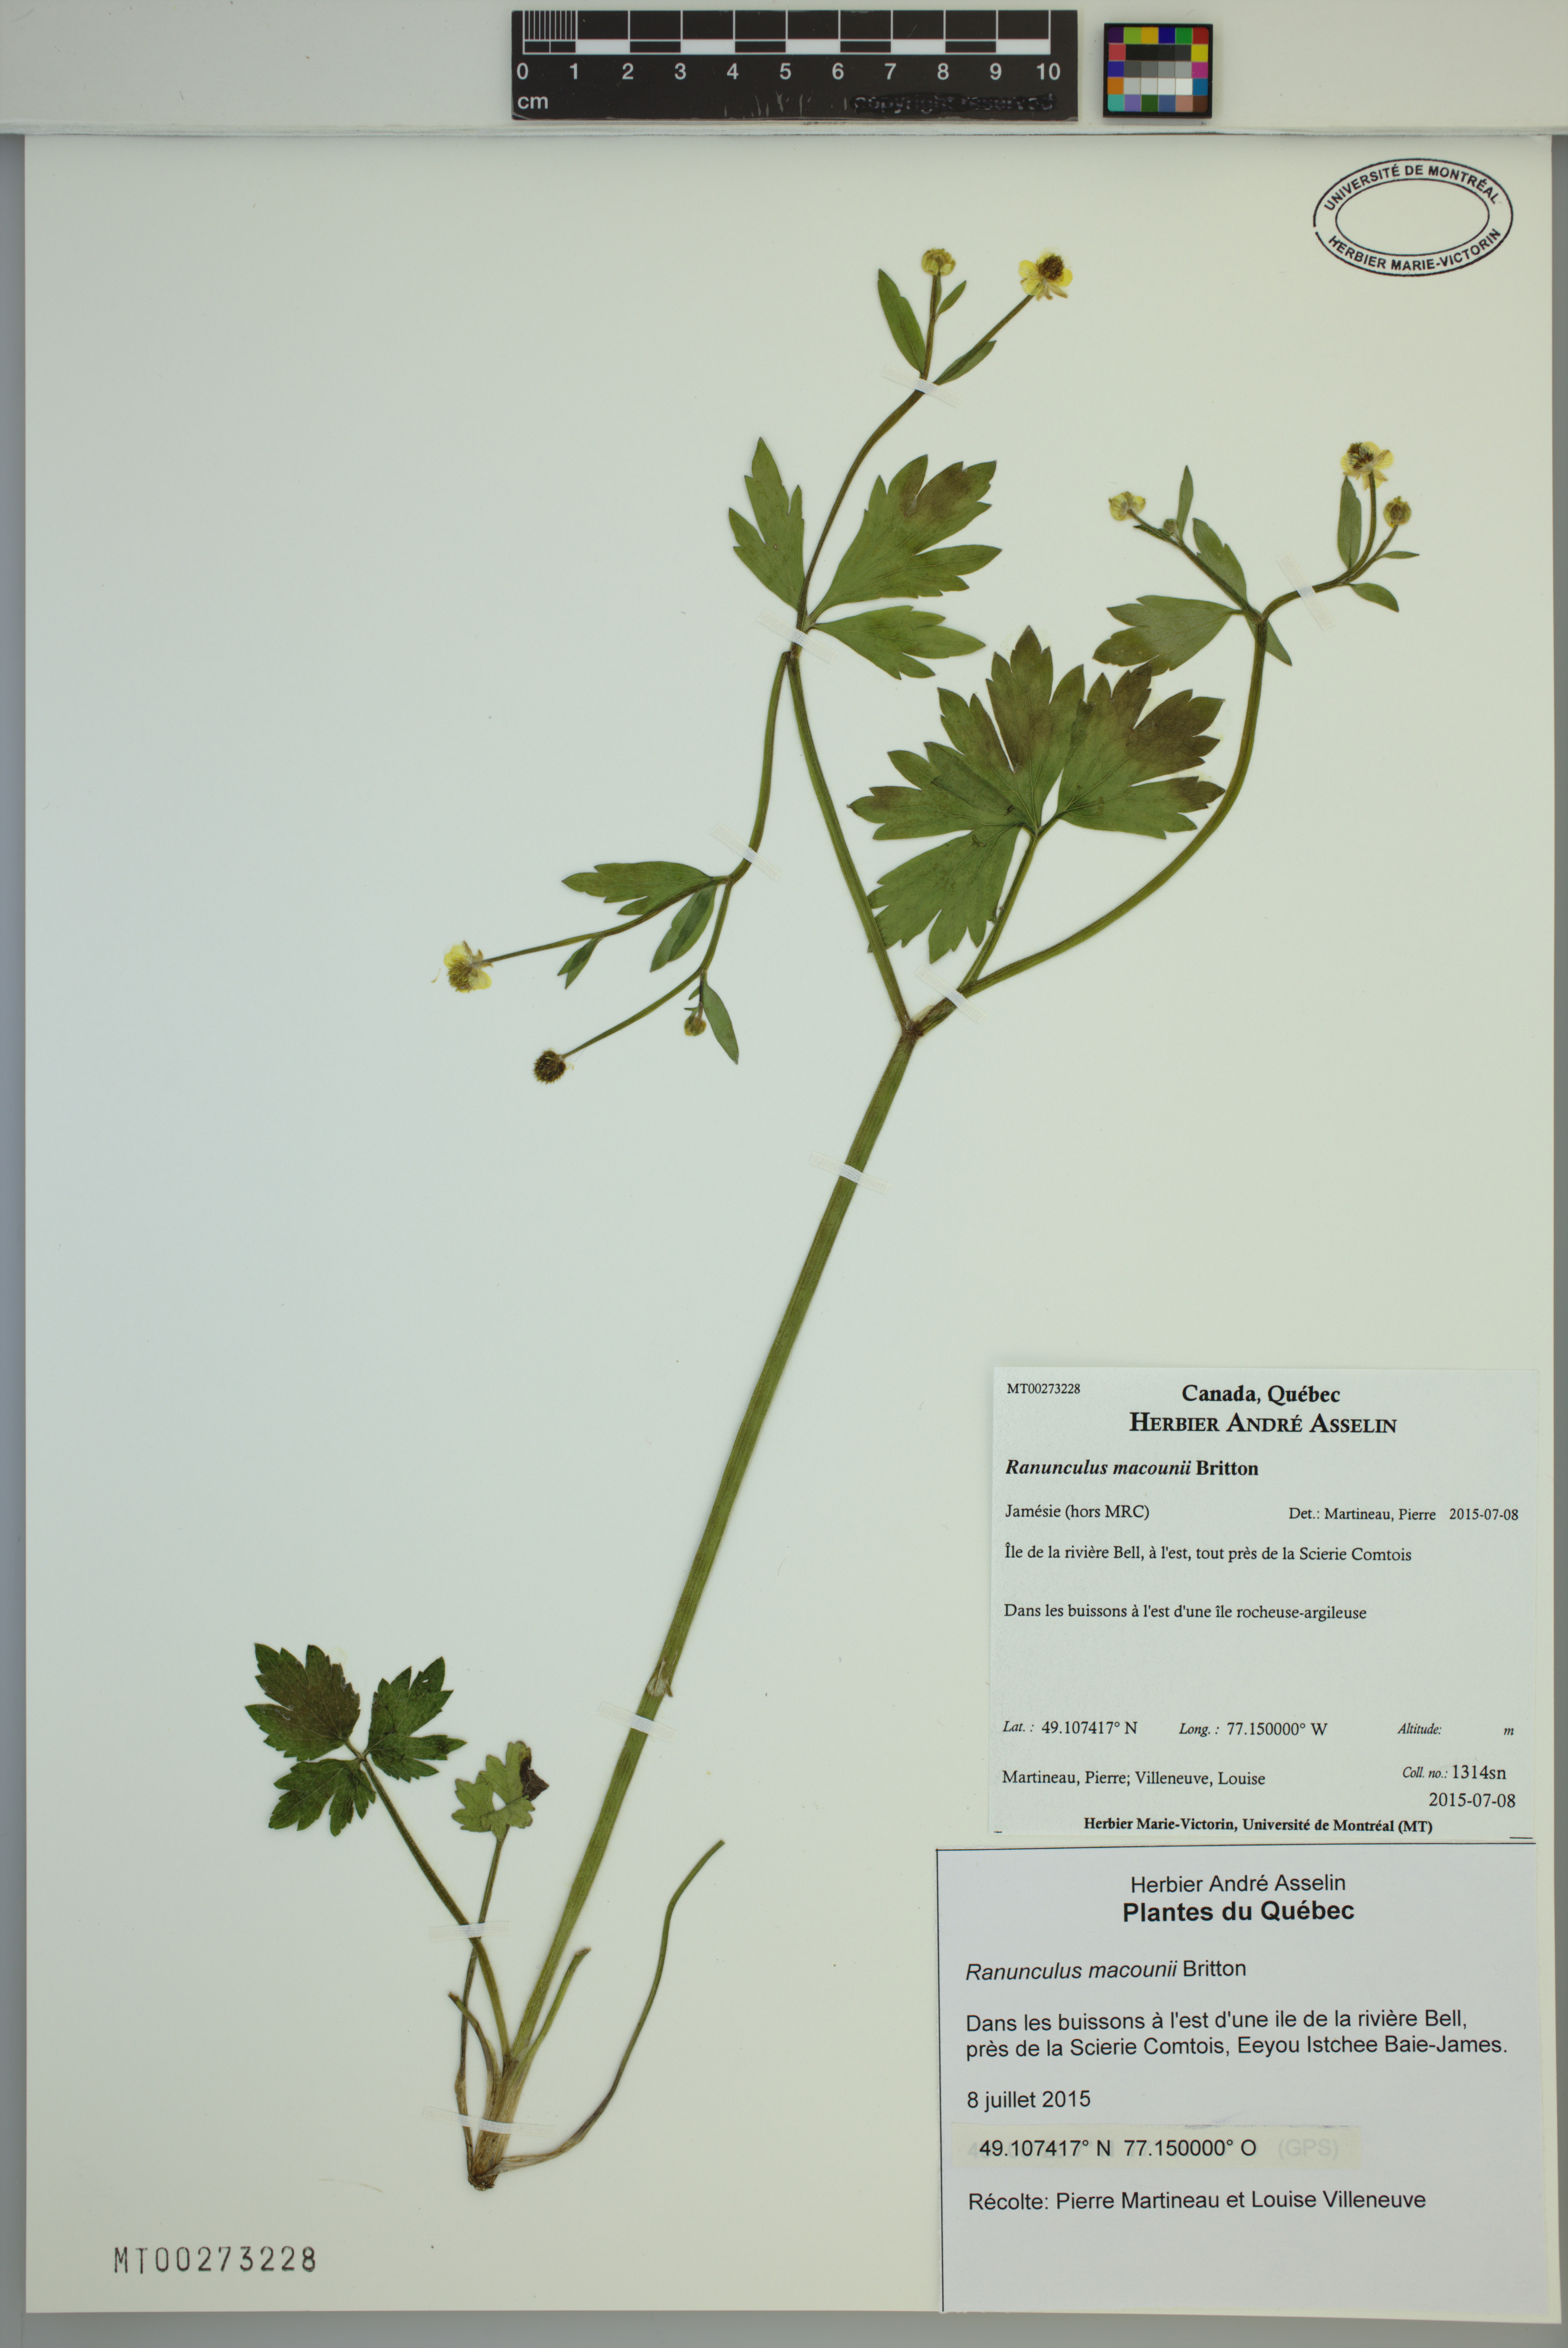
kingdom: Plantae
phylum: Tracheophyta
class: Magnoliopsida
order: Ranunculales
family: Ranunculaceae
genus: Ranunculus
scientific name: Ranunculus macounii
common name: Macoun's buttercup
